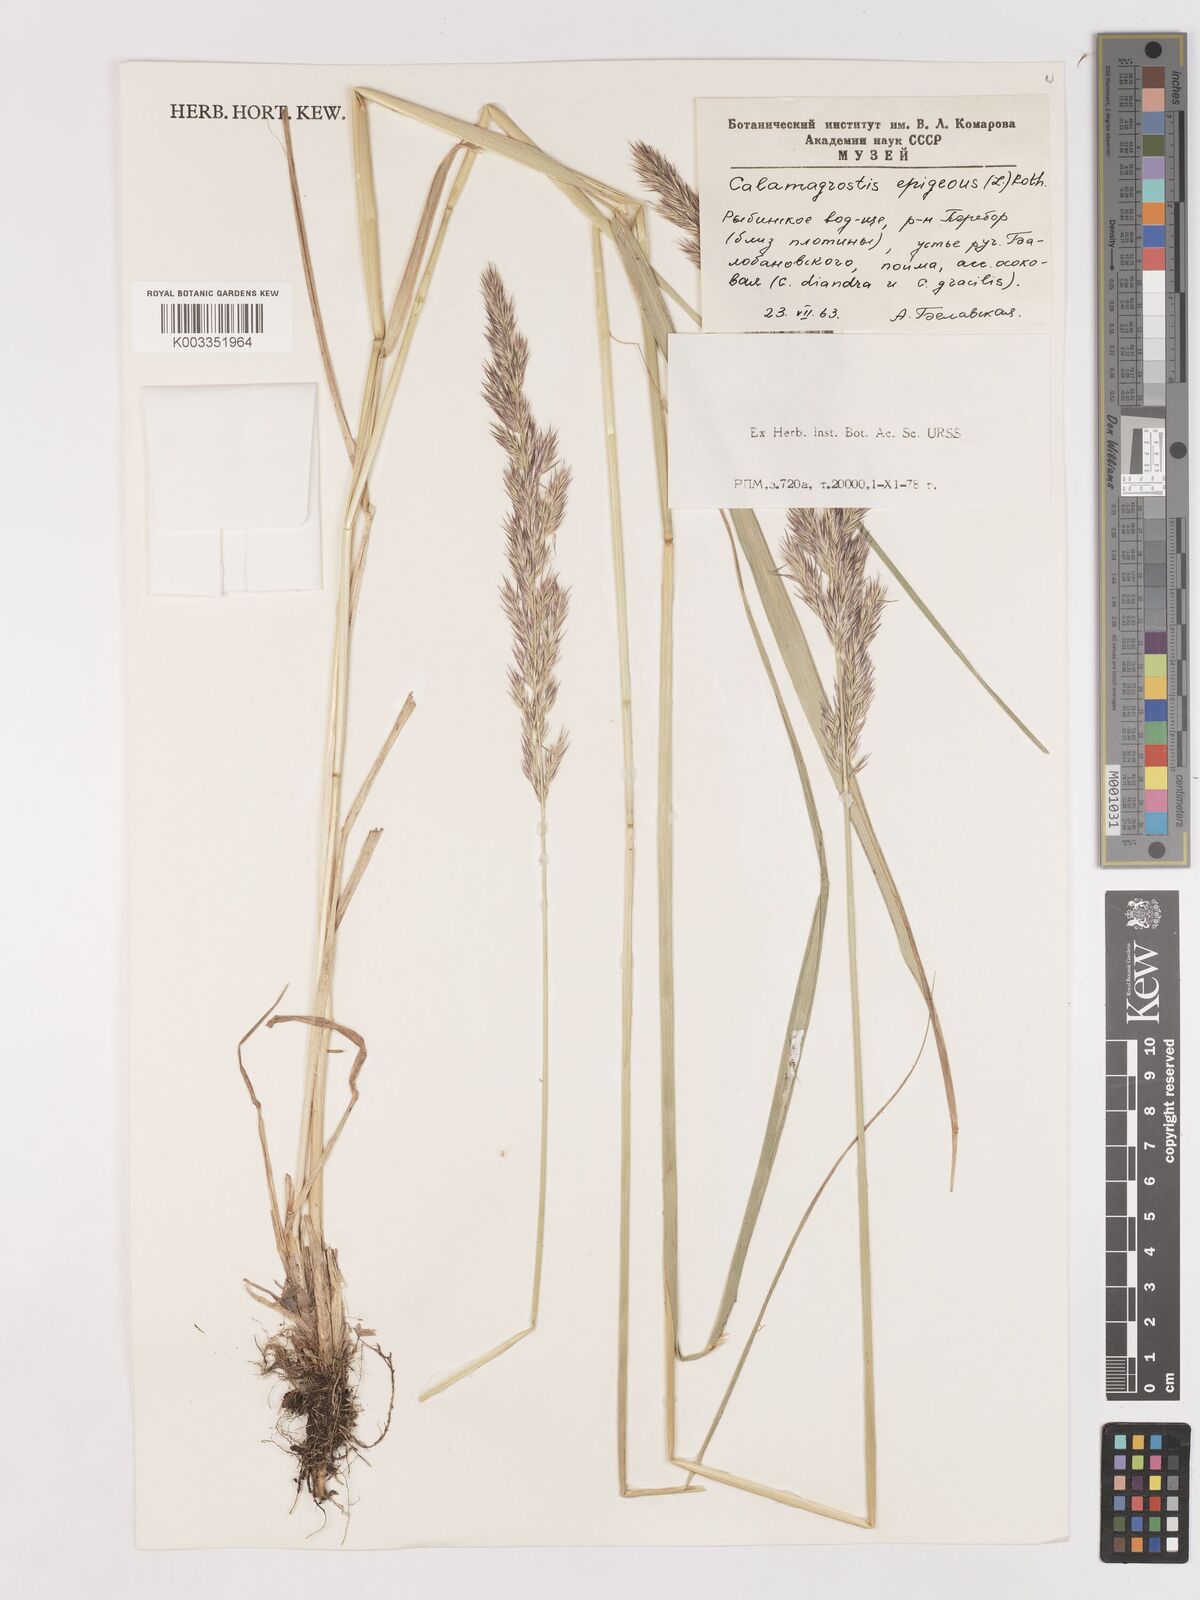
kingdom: Plantae
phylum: Tracheophyta
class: Liliopsida
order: Poales
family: Poaceae
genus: Calamagrostis
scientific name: Calamagrostis epigejos
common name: Wood small-reed
